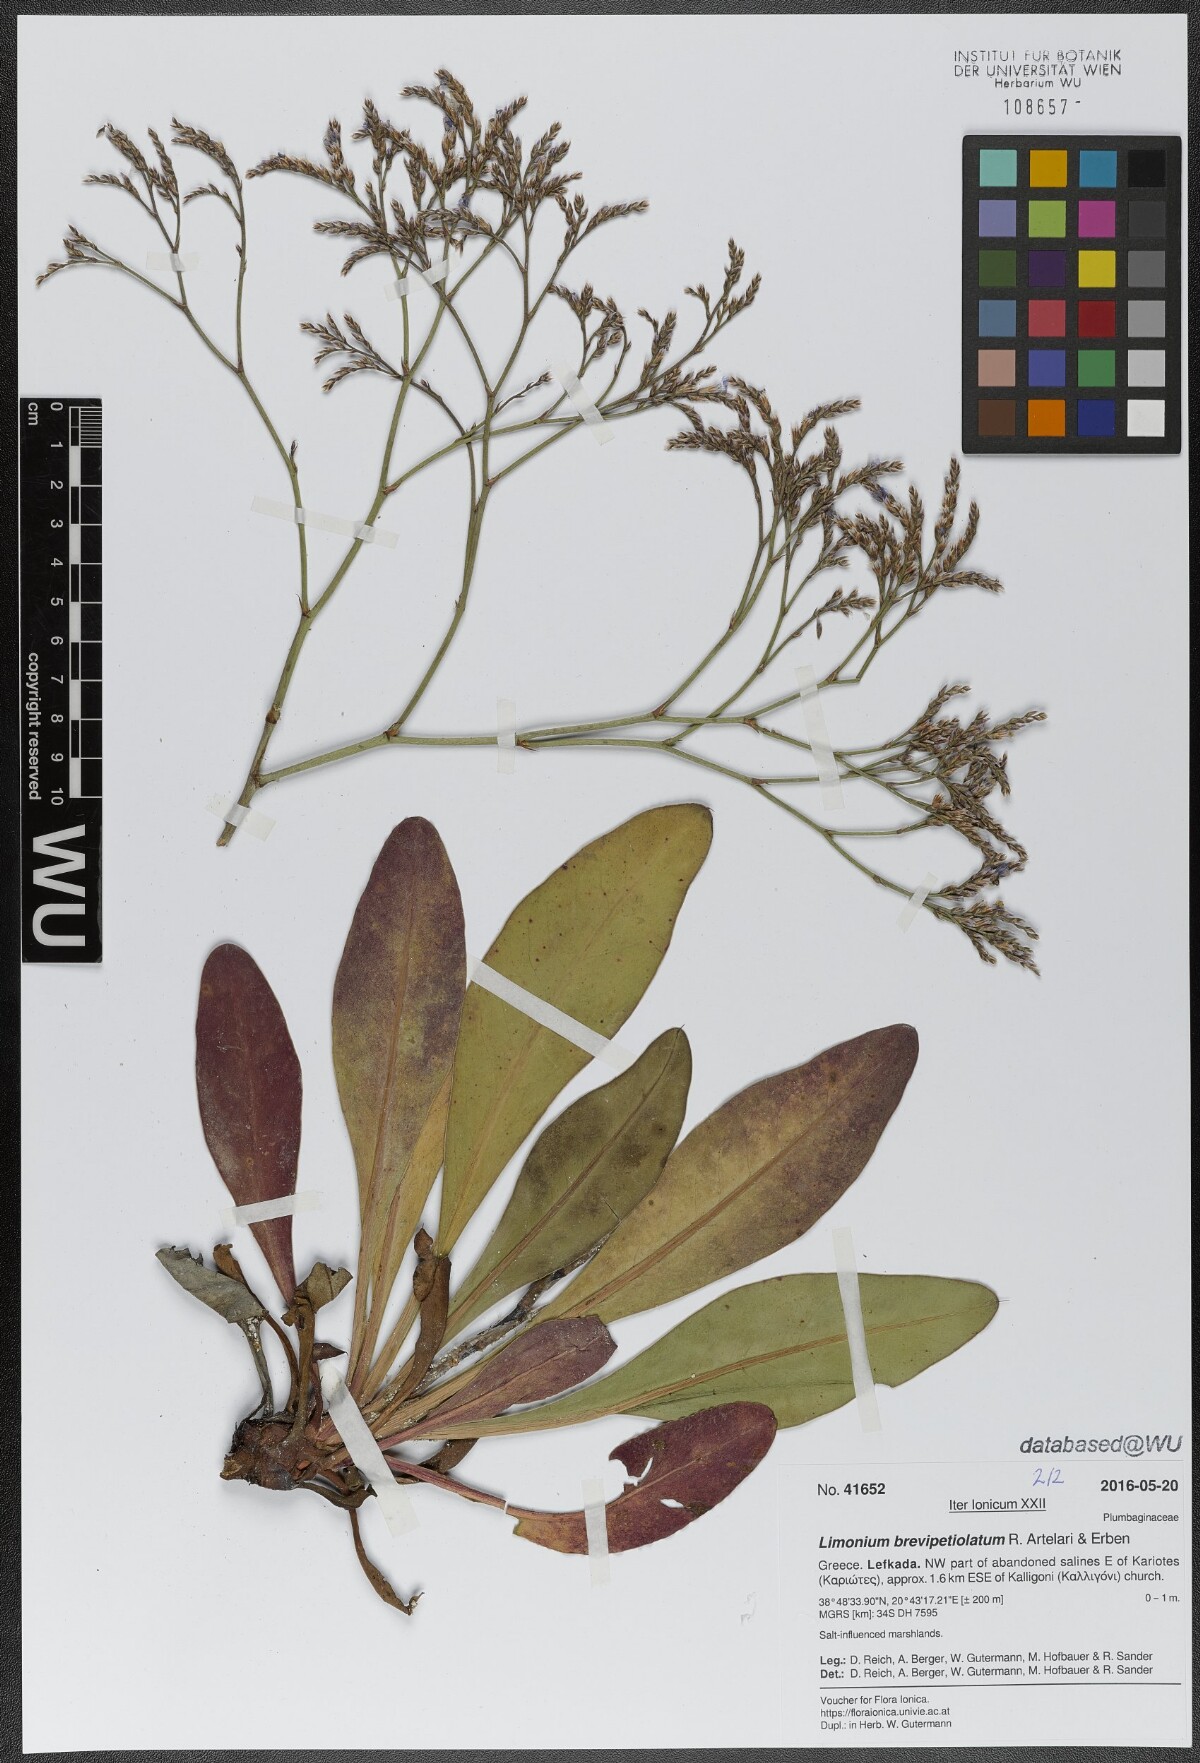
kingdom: Plantae
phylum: Tracheophyta
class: Magnoliopsida
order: Caryophyllales
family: Plumbaginaceae
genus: Limonium
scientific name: Limonium brevipetiolatum
